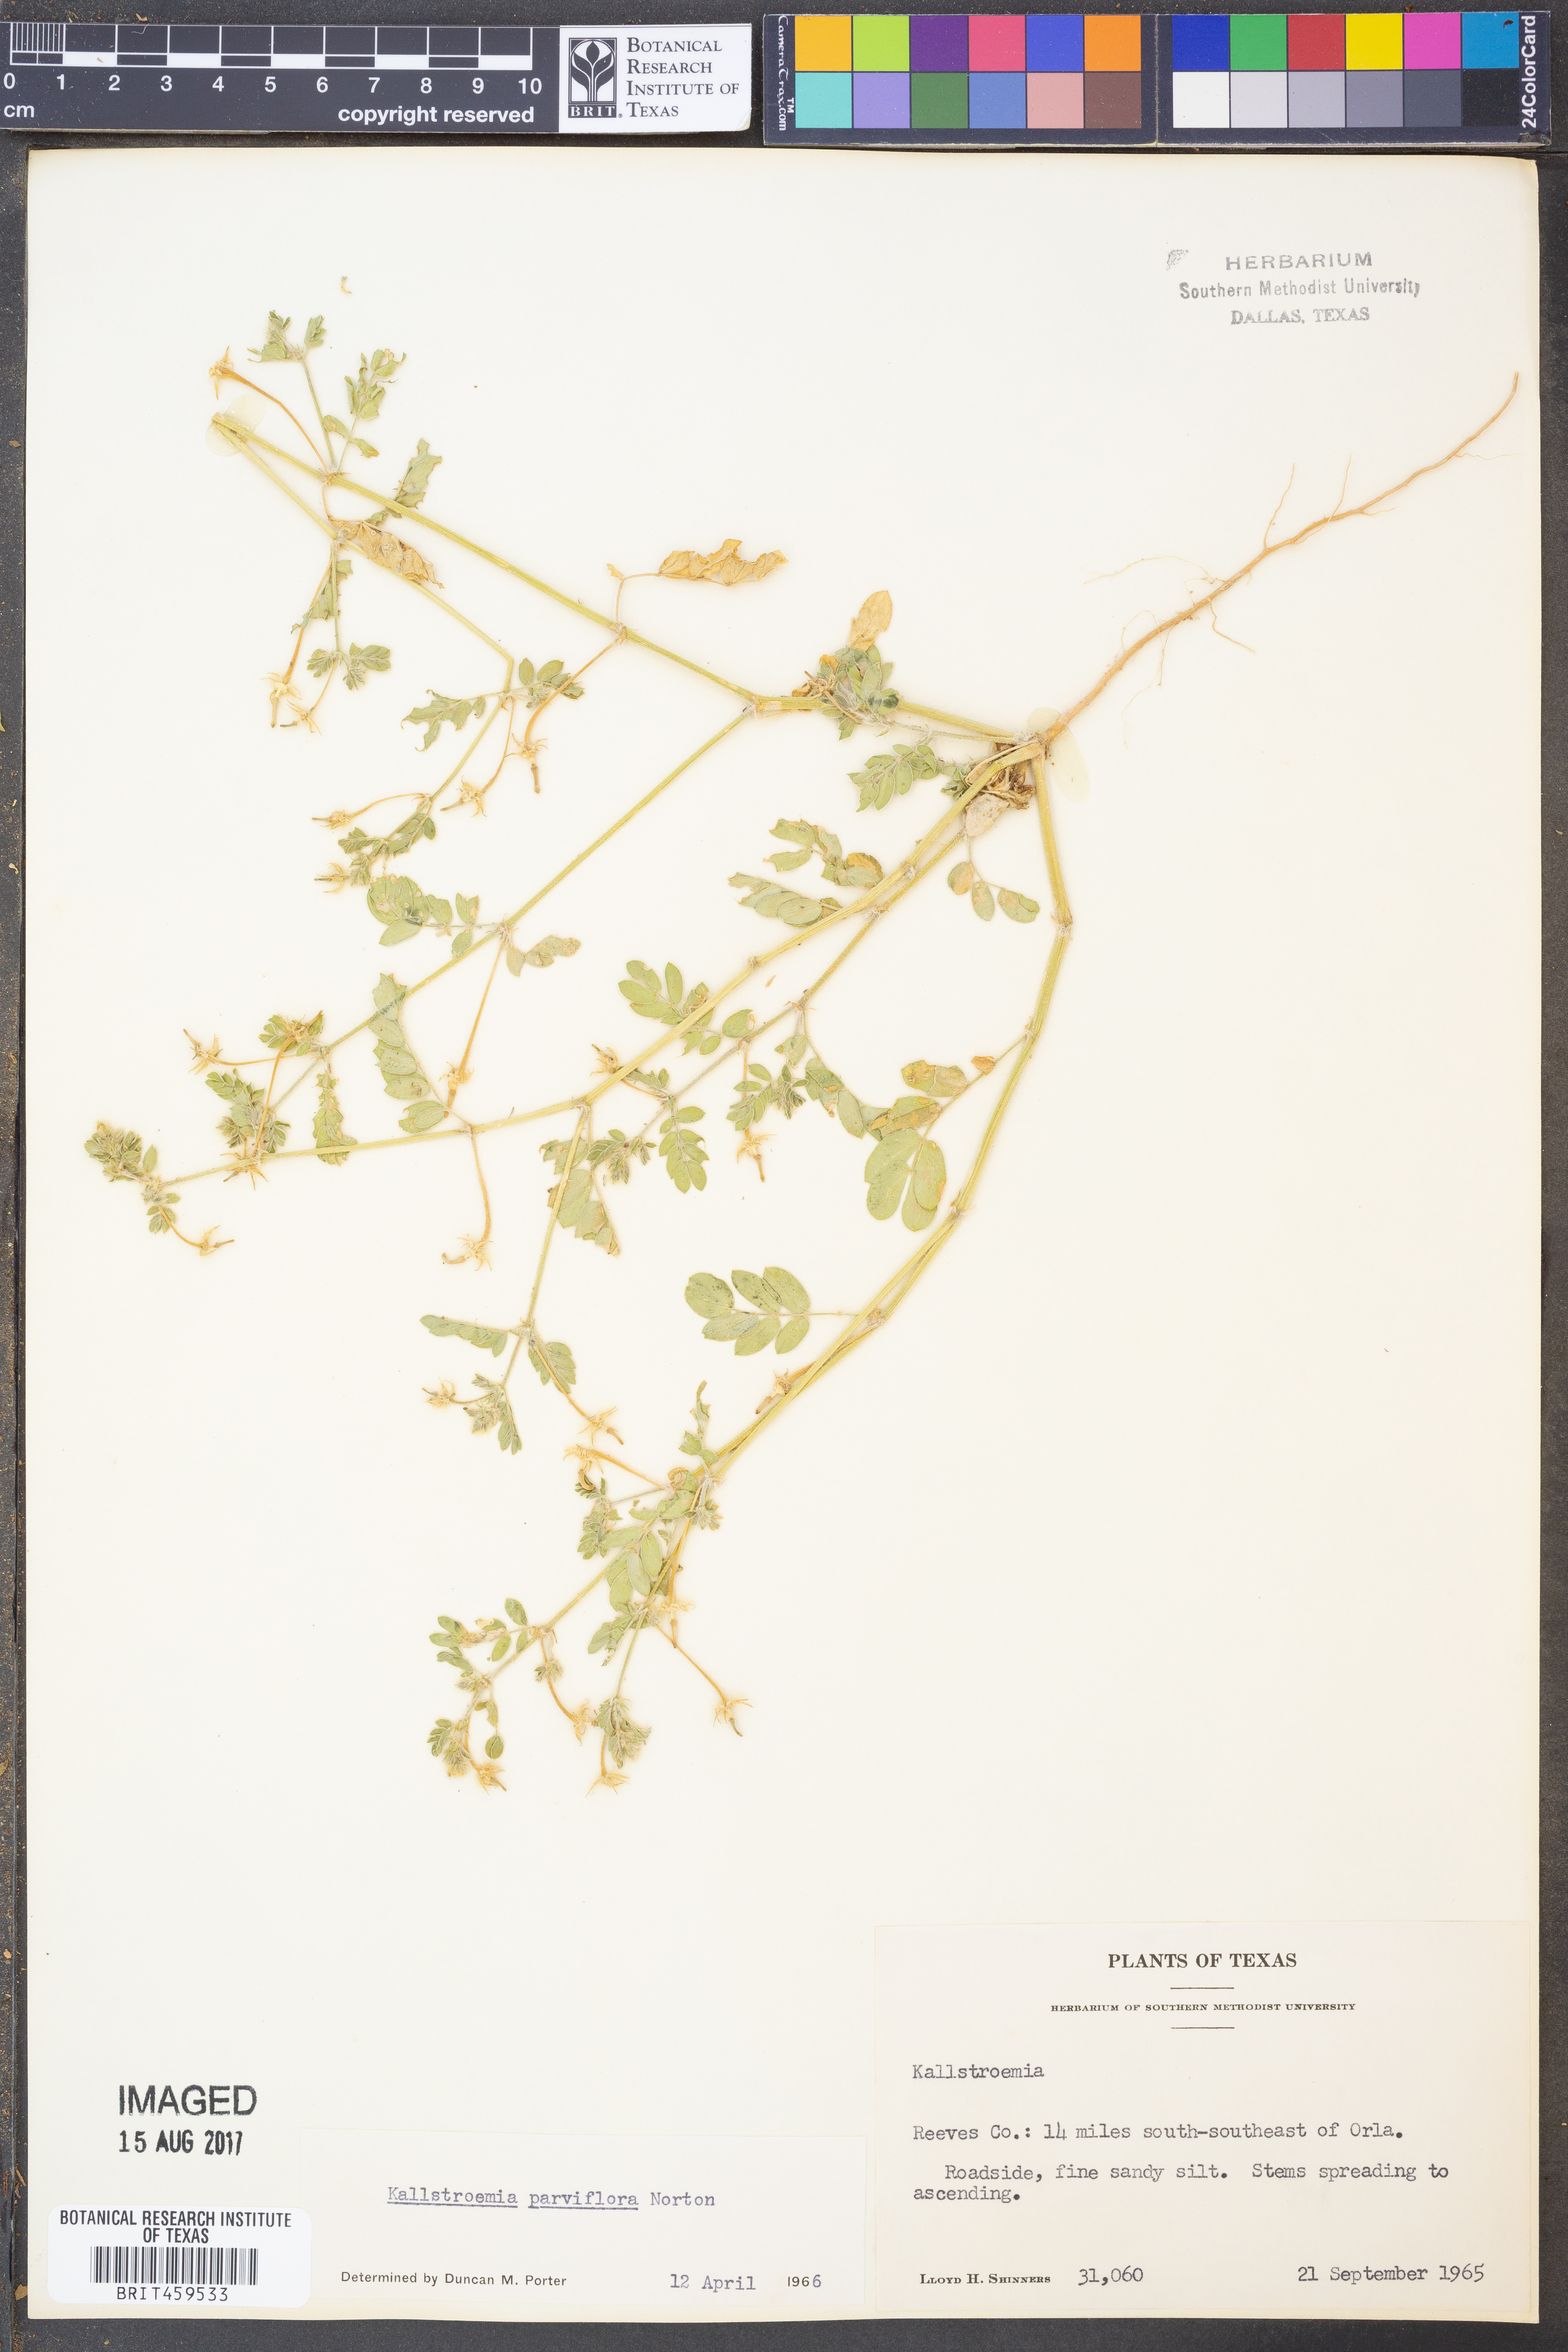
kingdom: Plantae
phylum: Tracheophyta
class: Magnoliopsida
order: Zygophyllales
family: Zygophyllaceae
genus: Kallstroemia
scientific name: Kallstroemia parviflora
